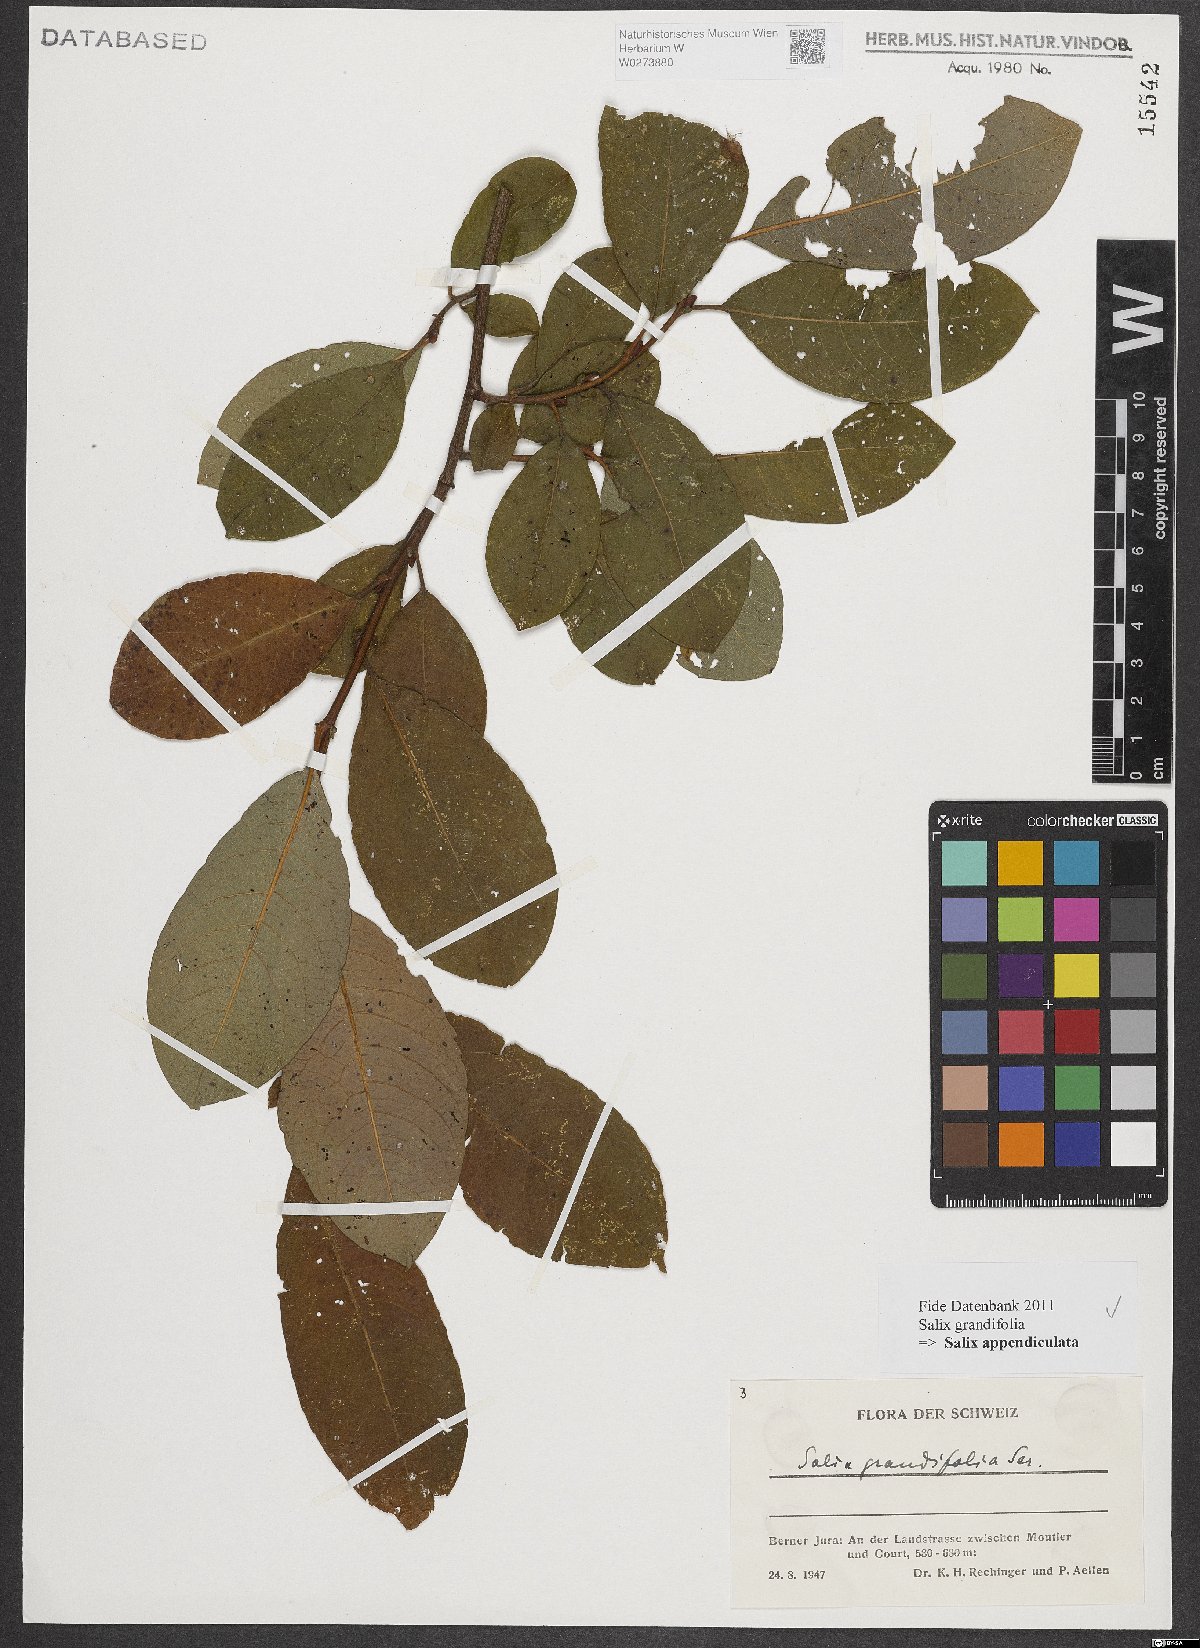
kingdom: Plantae
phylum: Tracheophyta
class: Magnoliopsida
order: Malpighiales
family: Salicaceae
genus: Salix
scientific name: Salix appendiculata
